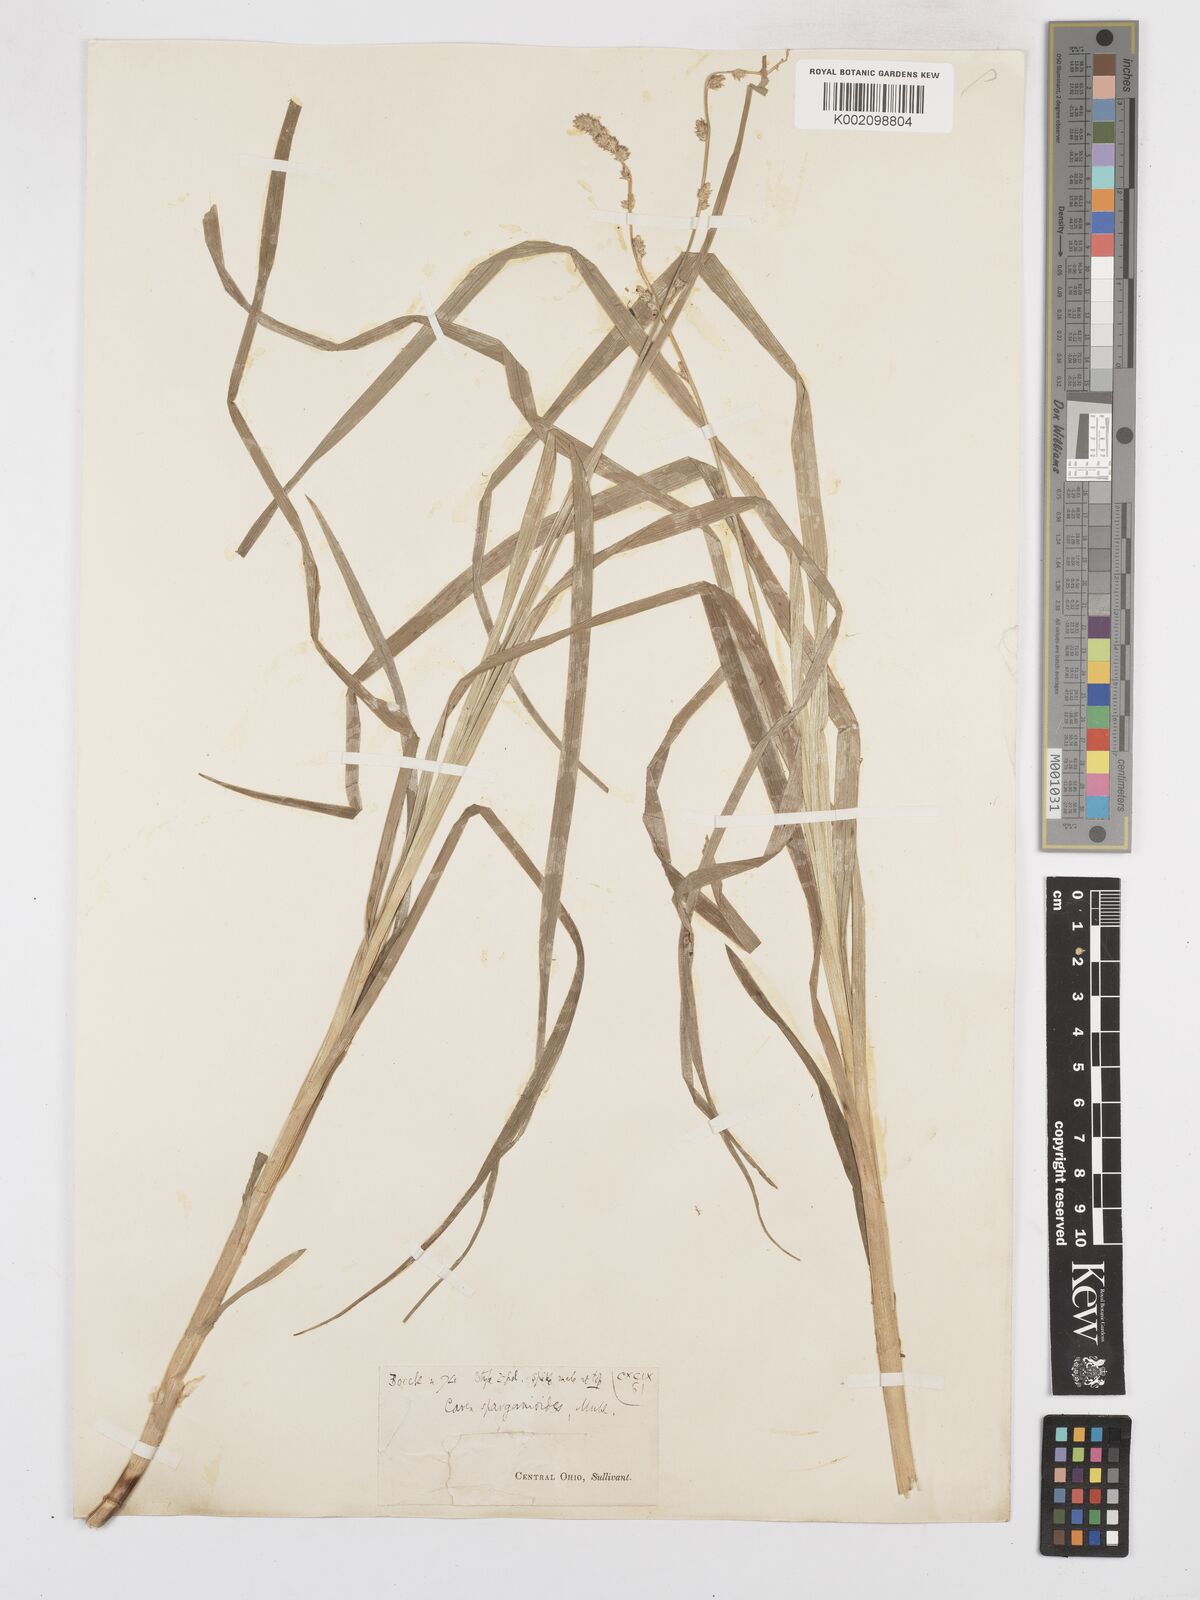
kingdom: Plantae
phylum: Tracheophyta
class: Liliopsida
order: Poales
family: Cyperaceae
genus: Carex
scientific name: Carex sparganioides
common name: Burreed sedge
